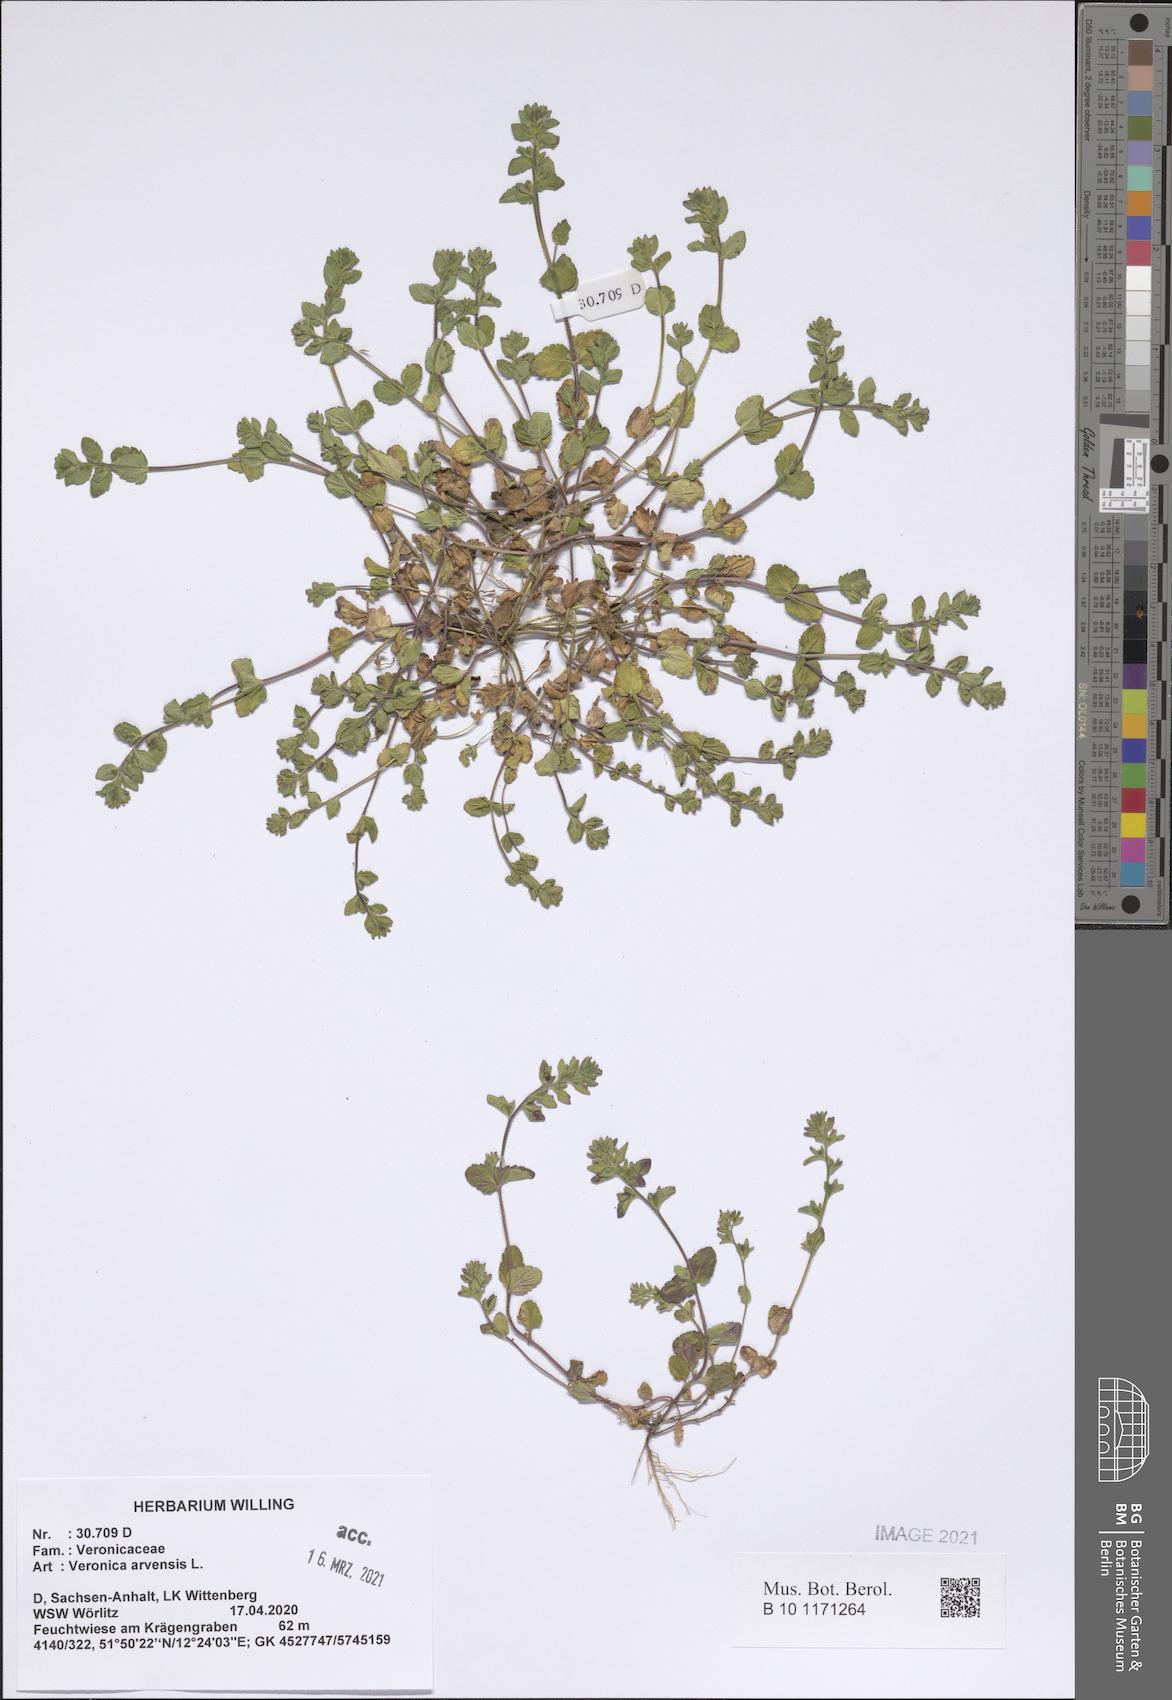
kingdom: Plantae
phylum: Tracheophyta
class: Magnoliopsida
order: Lamiales
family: Plantaginaceae
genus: Veronica
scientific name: Veronica arvensis
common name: Corn speedwell
